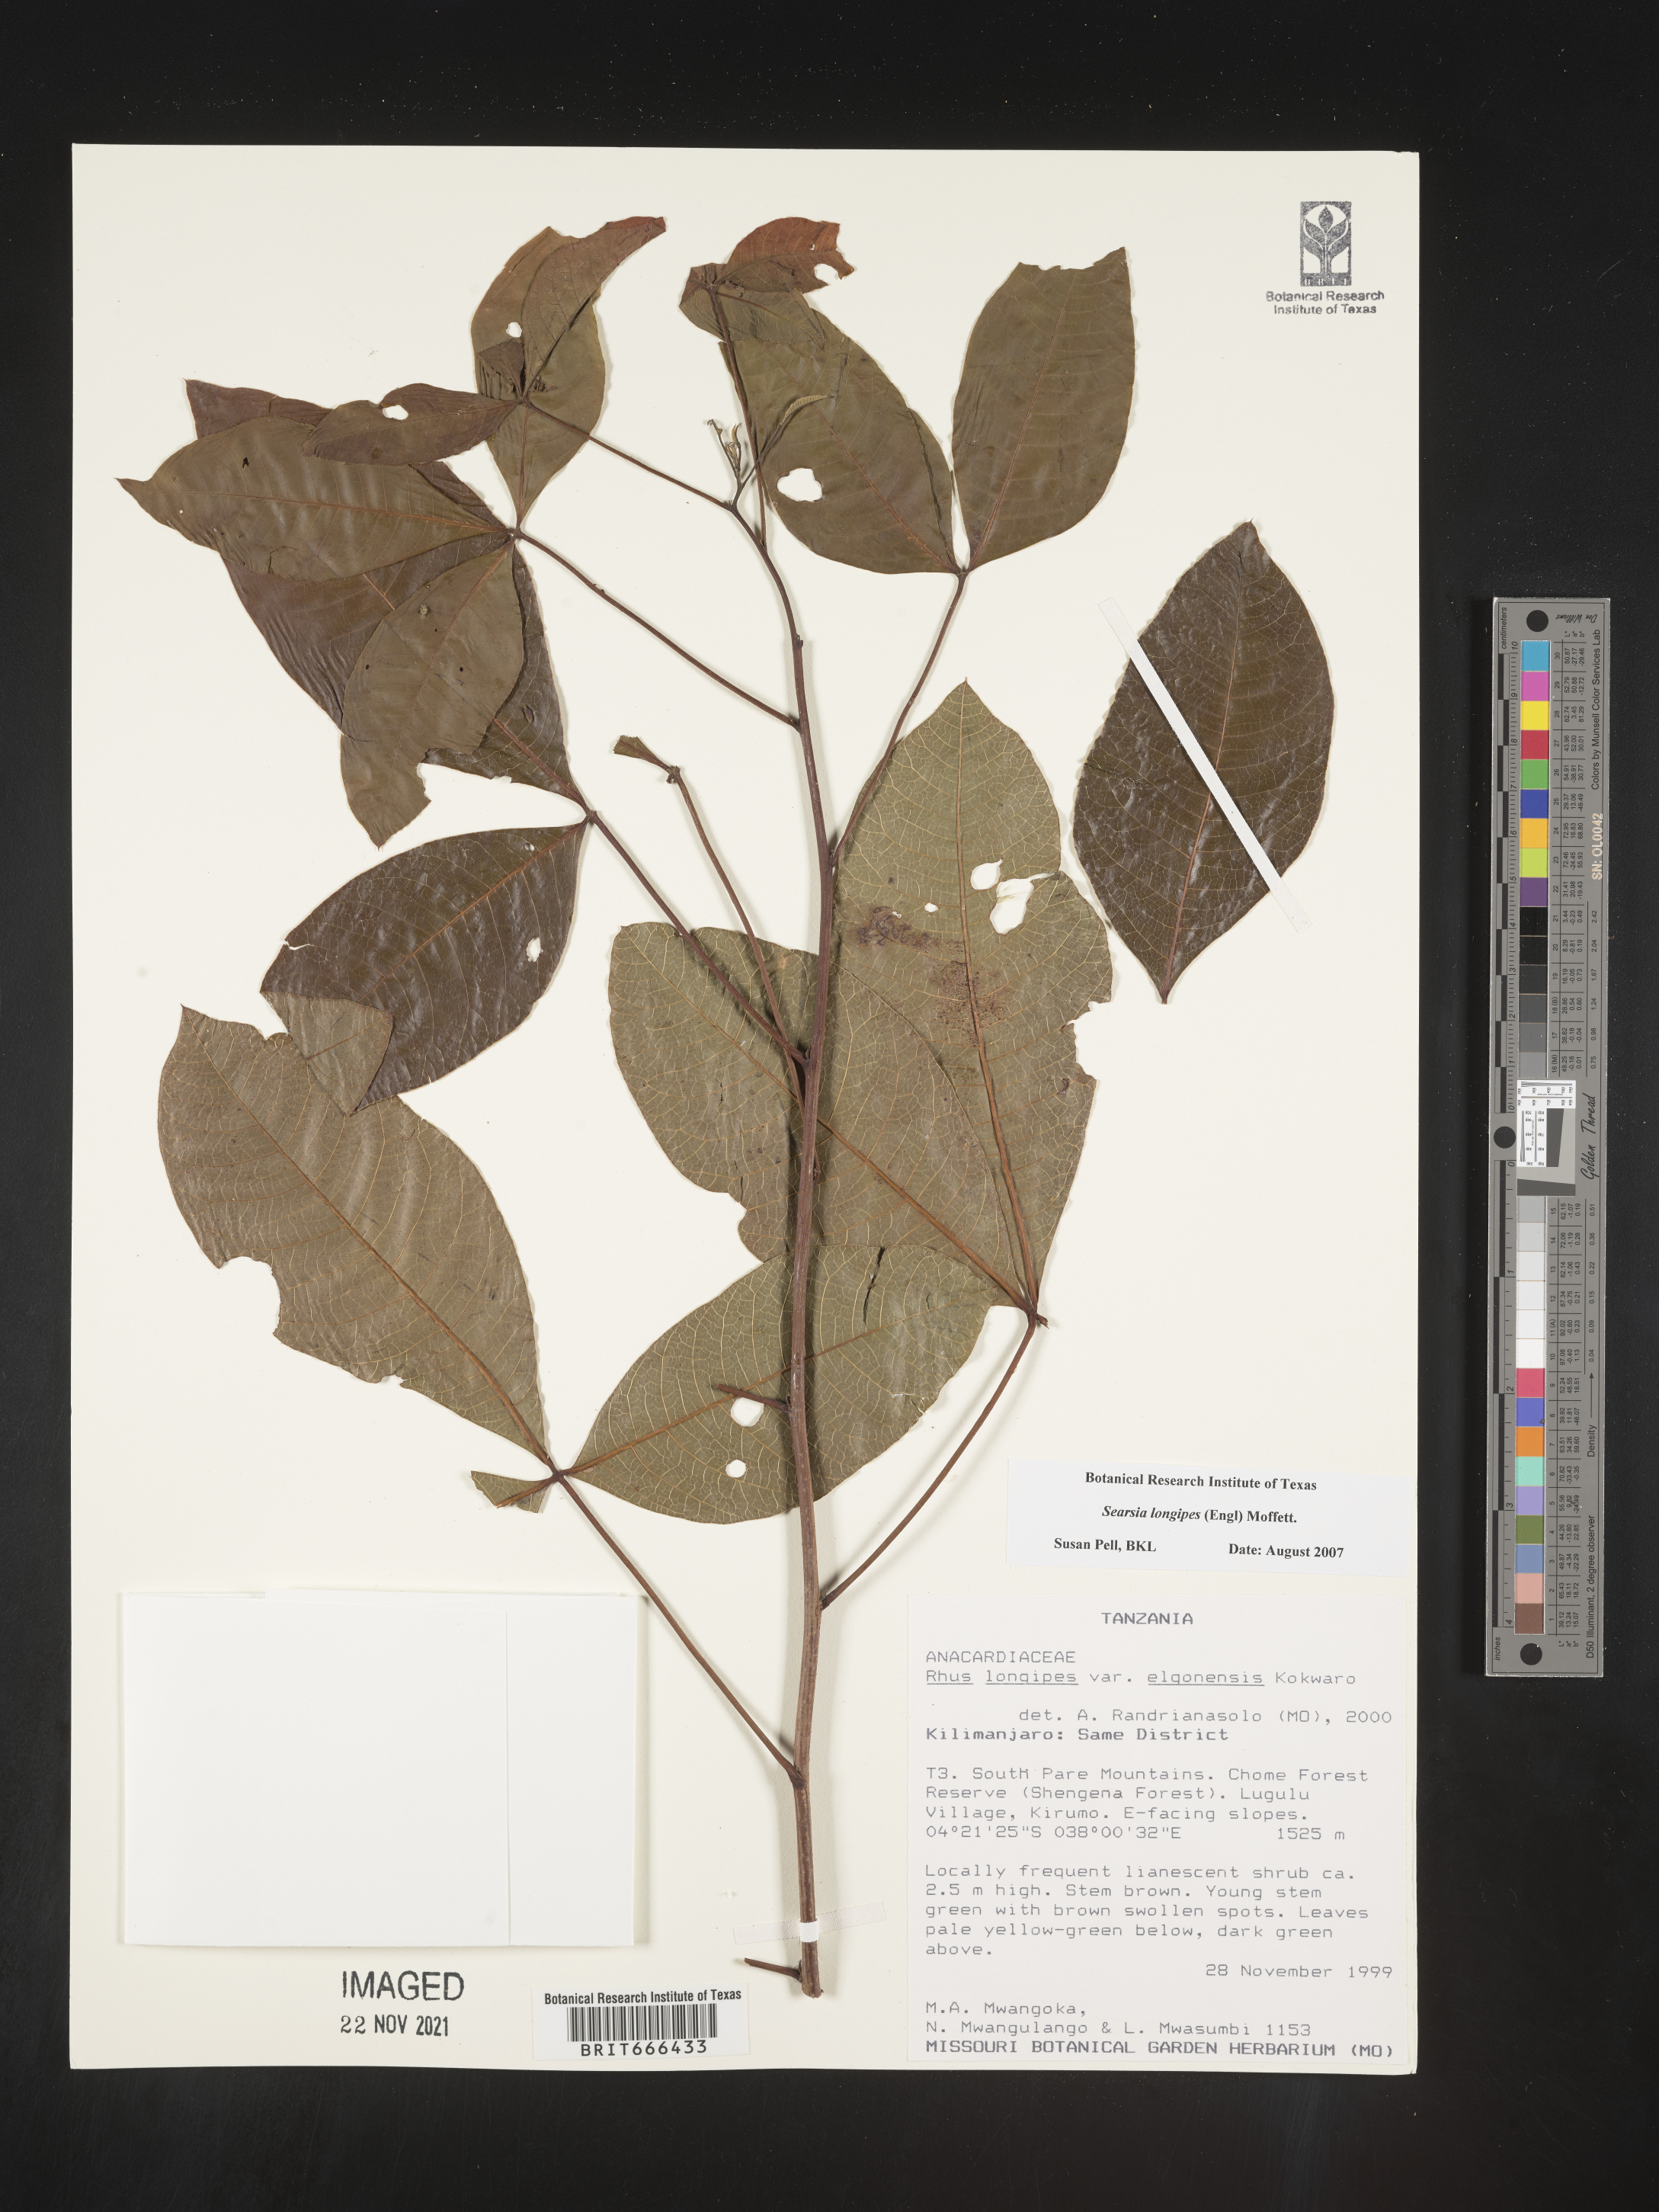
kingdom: Plantae
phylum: Tracheophyta
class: Magnoliopsida
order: Sapindales
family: Anacardiaceae
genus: Searsia
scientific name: Searsia longipes
